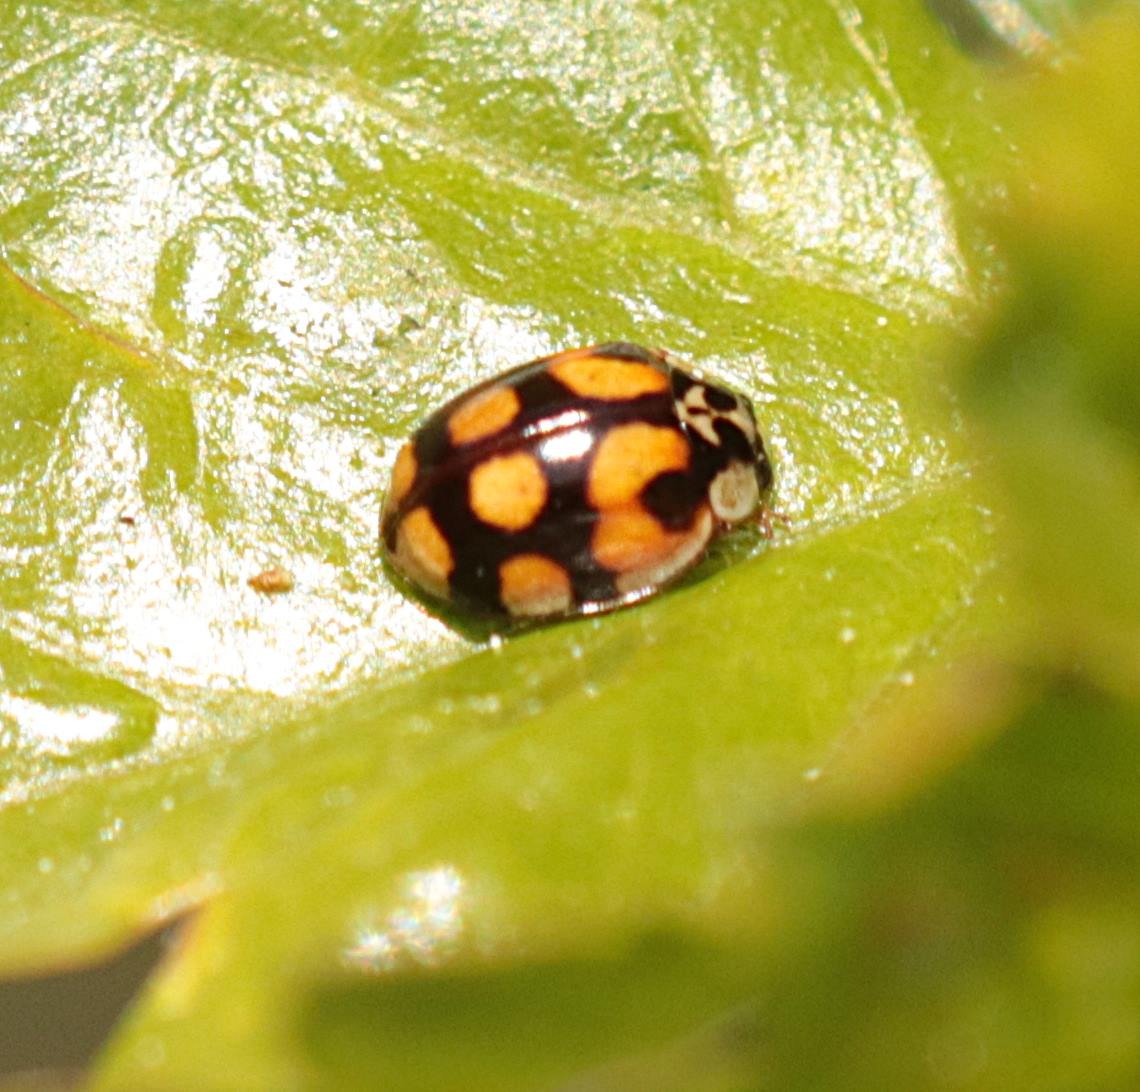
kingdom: Animalia
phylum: Arthropoda
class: Insecta
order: Coleoptera
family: Coccinellidae
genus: Adalia
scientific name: Adalia decempunctata
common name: Tiplettet mariehøne
